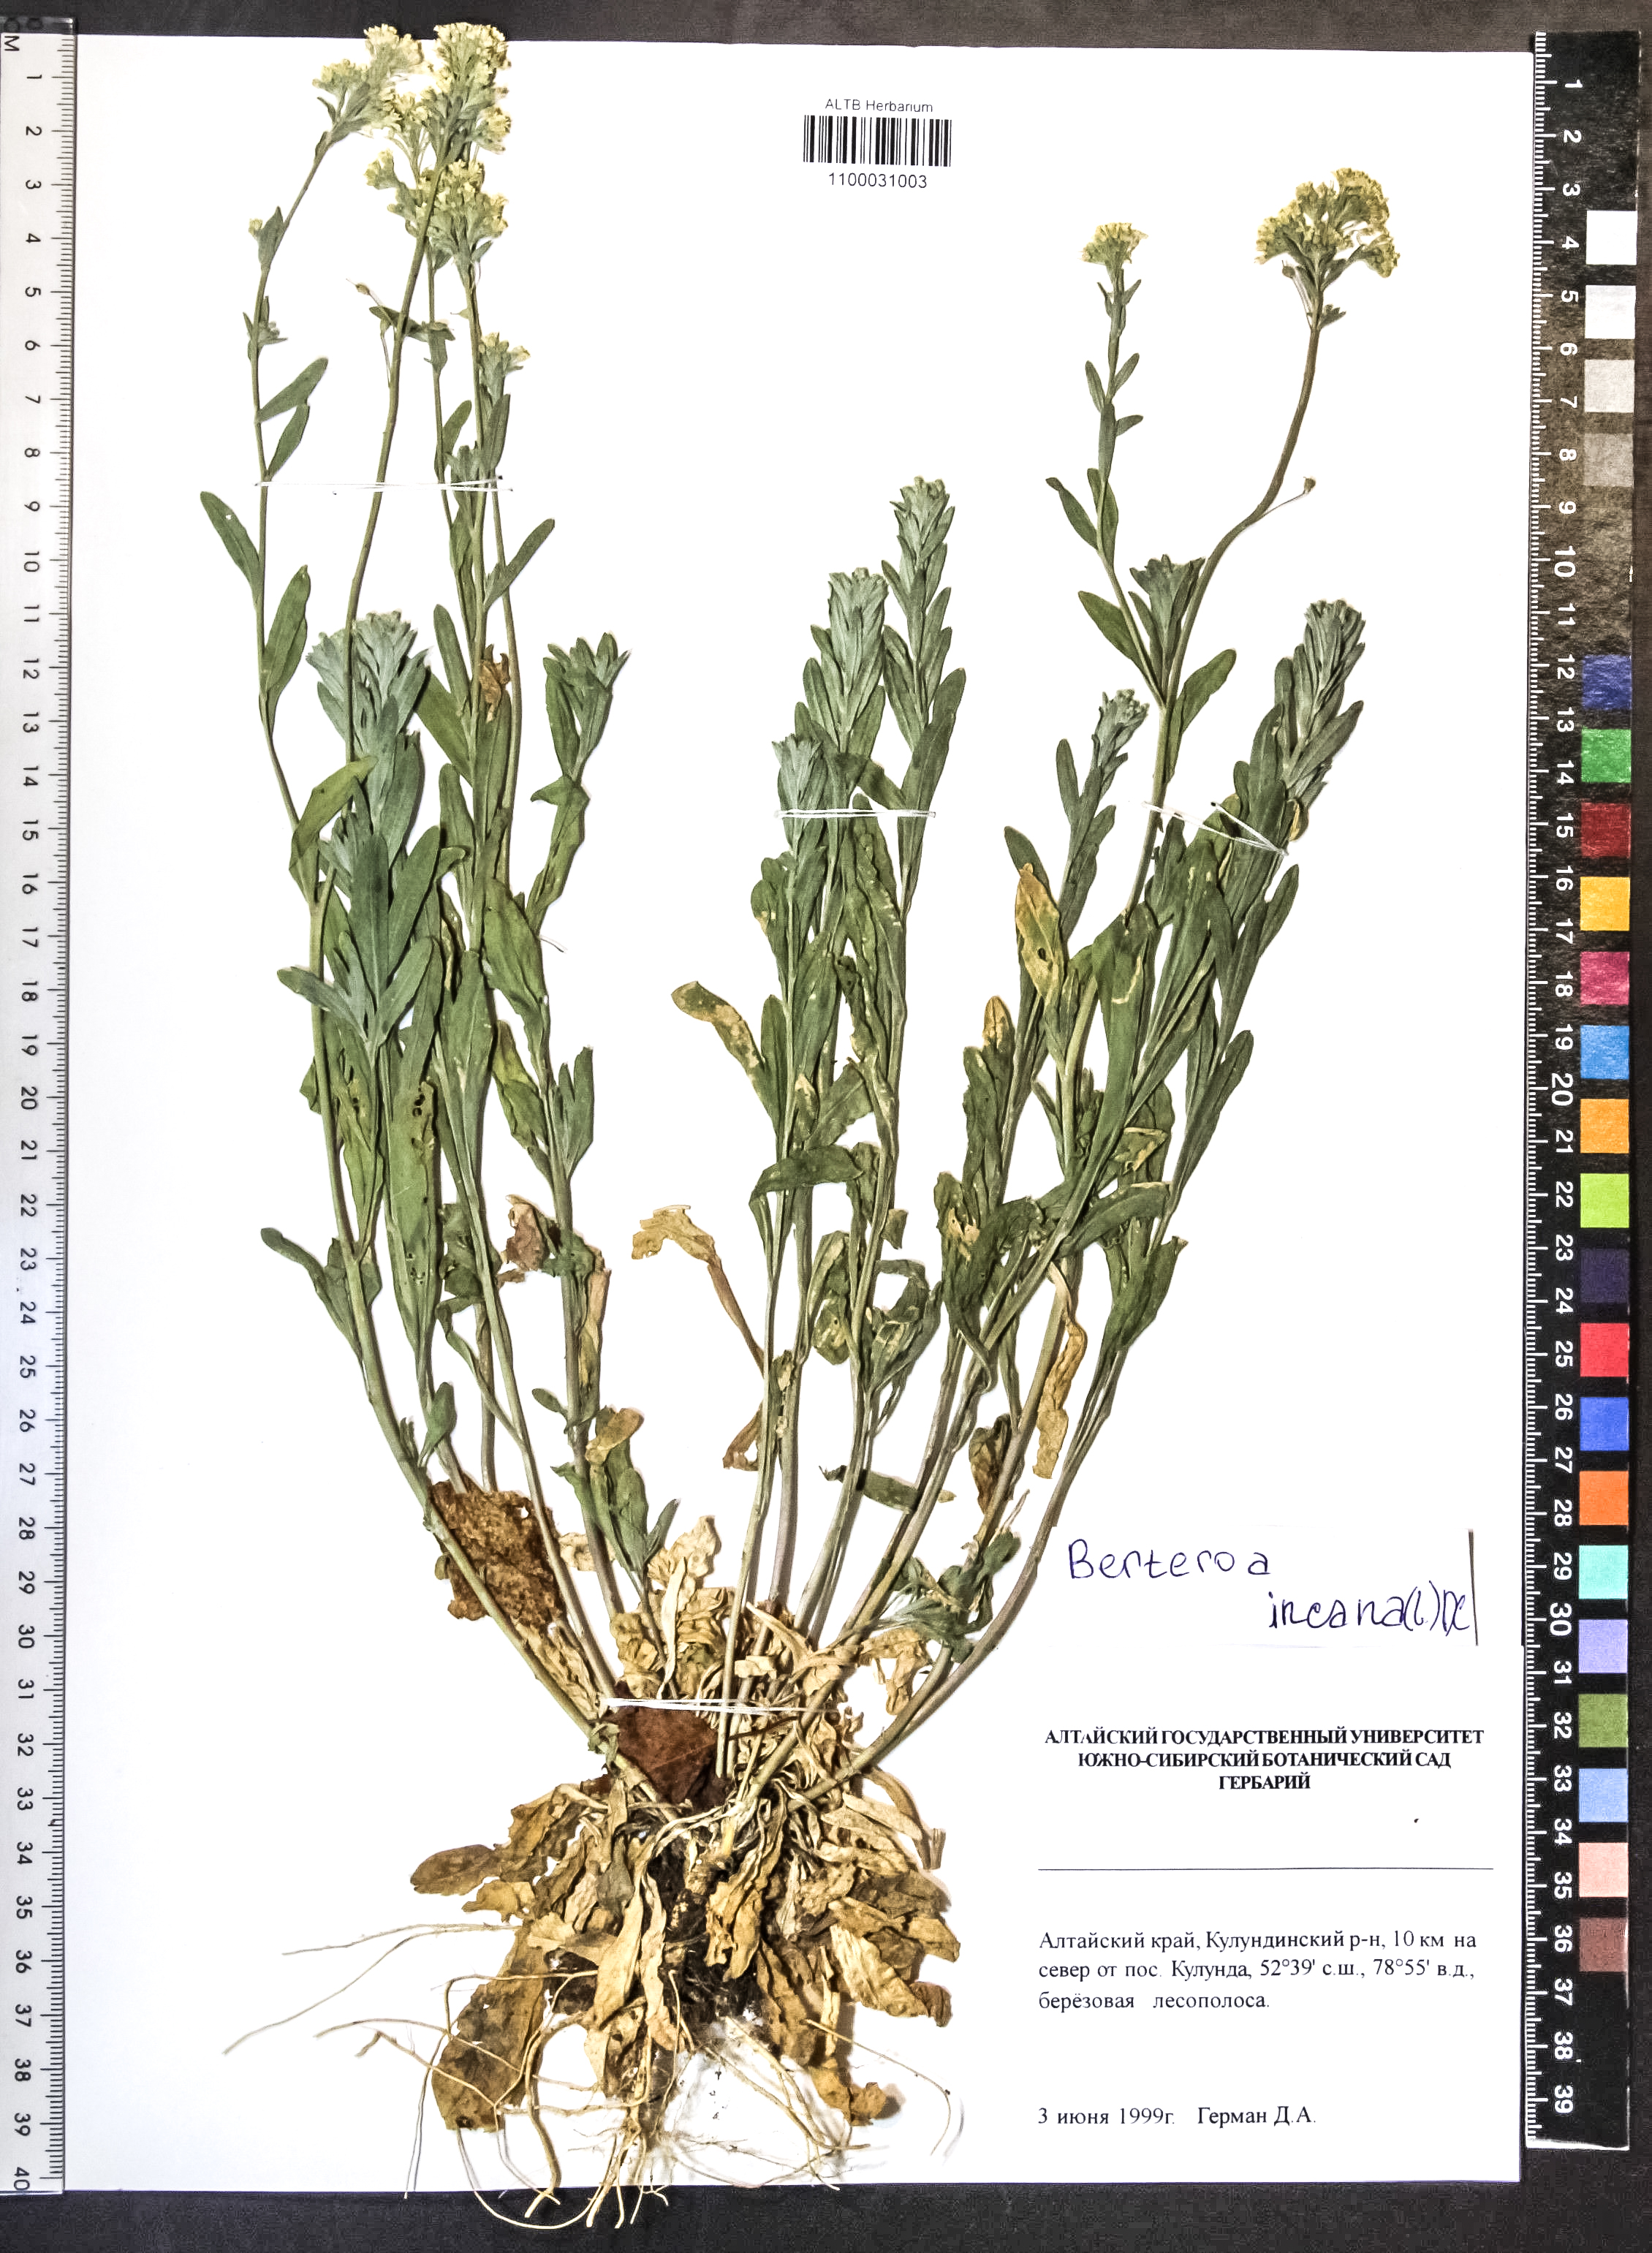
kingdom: Plantae
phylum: Tracheophyta
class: Magnoliopsida
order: Brassicales
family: Brassicaceae
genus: Berteroa
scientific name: Berteroa incana
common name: Hoary alison
